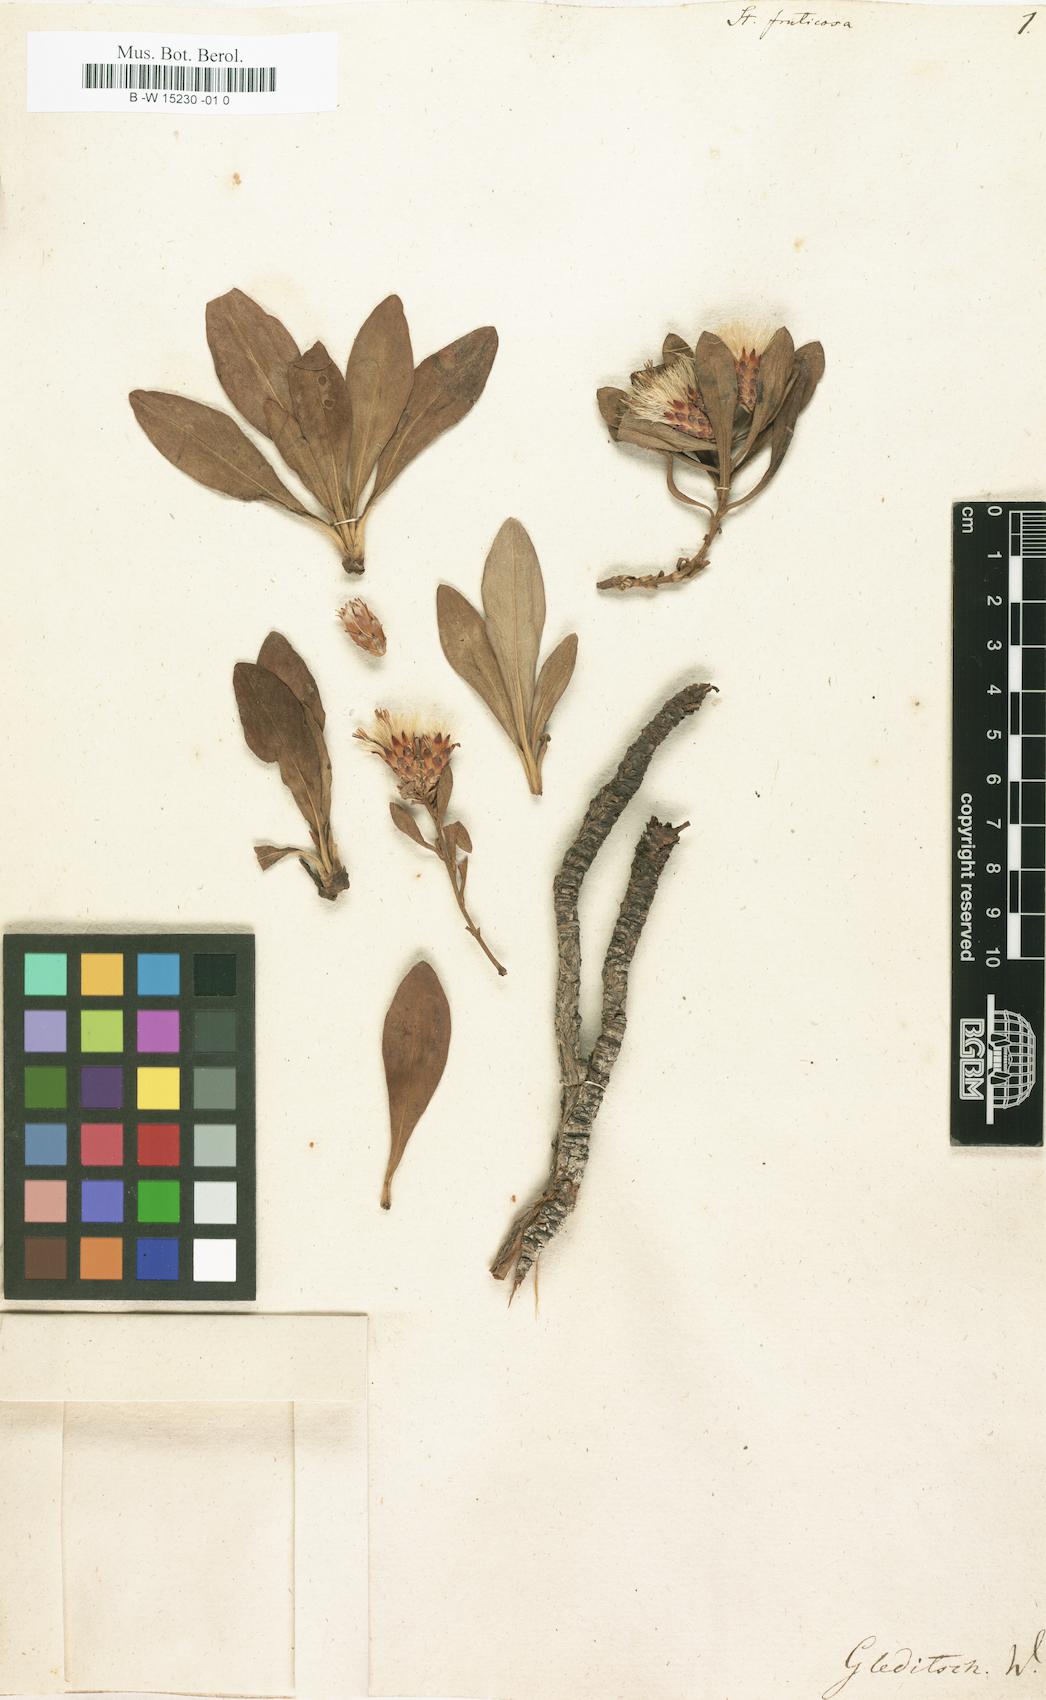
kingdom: Plantae
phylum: Tracheophyta
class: Magnoliopsida
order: Asterales
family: Asteraceae
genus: Hirtellina
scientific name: Hirtellina fruticosa
